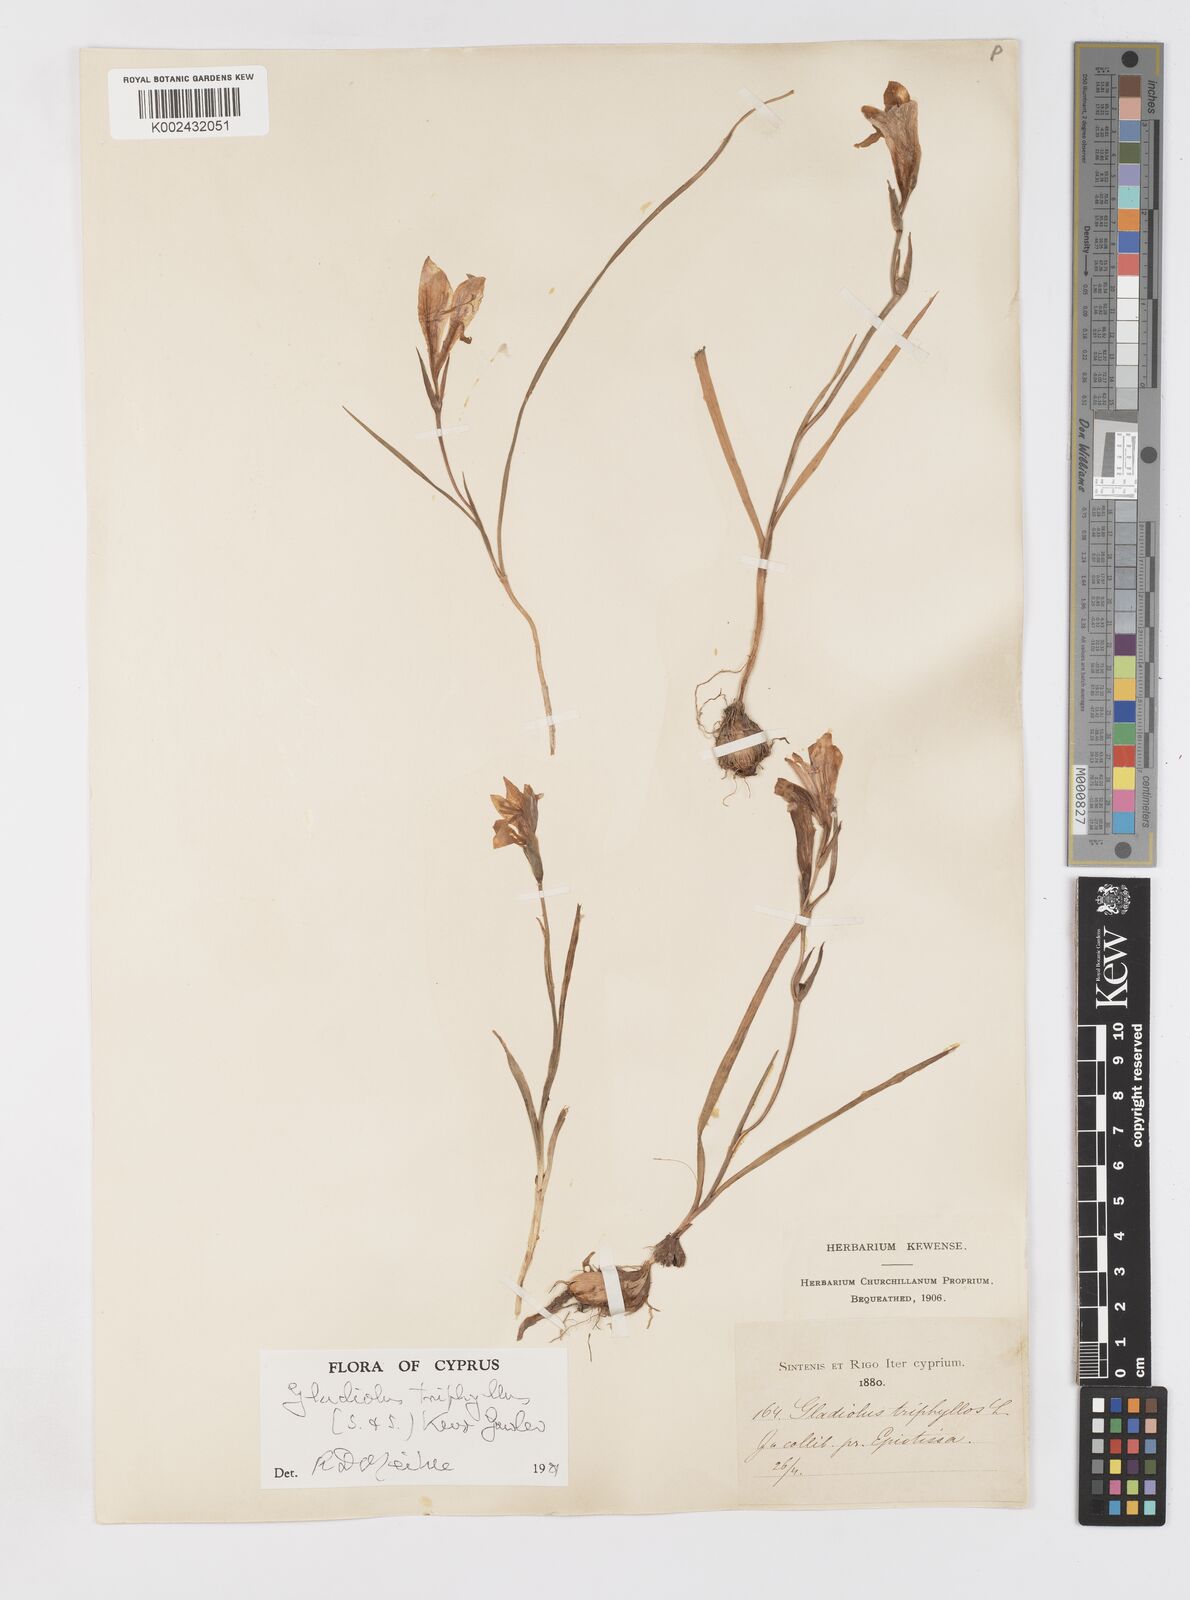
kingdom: Plantae
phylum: Tracheophyta
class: Liliopsida
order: Asparagales
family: Iridaceae
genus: Gladiolus
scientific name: Gladiolus triphyllus
